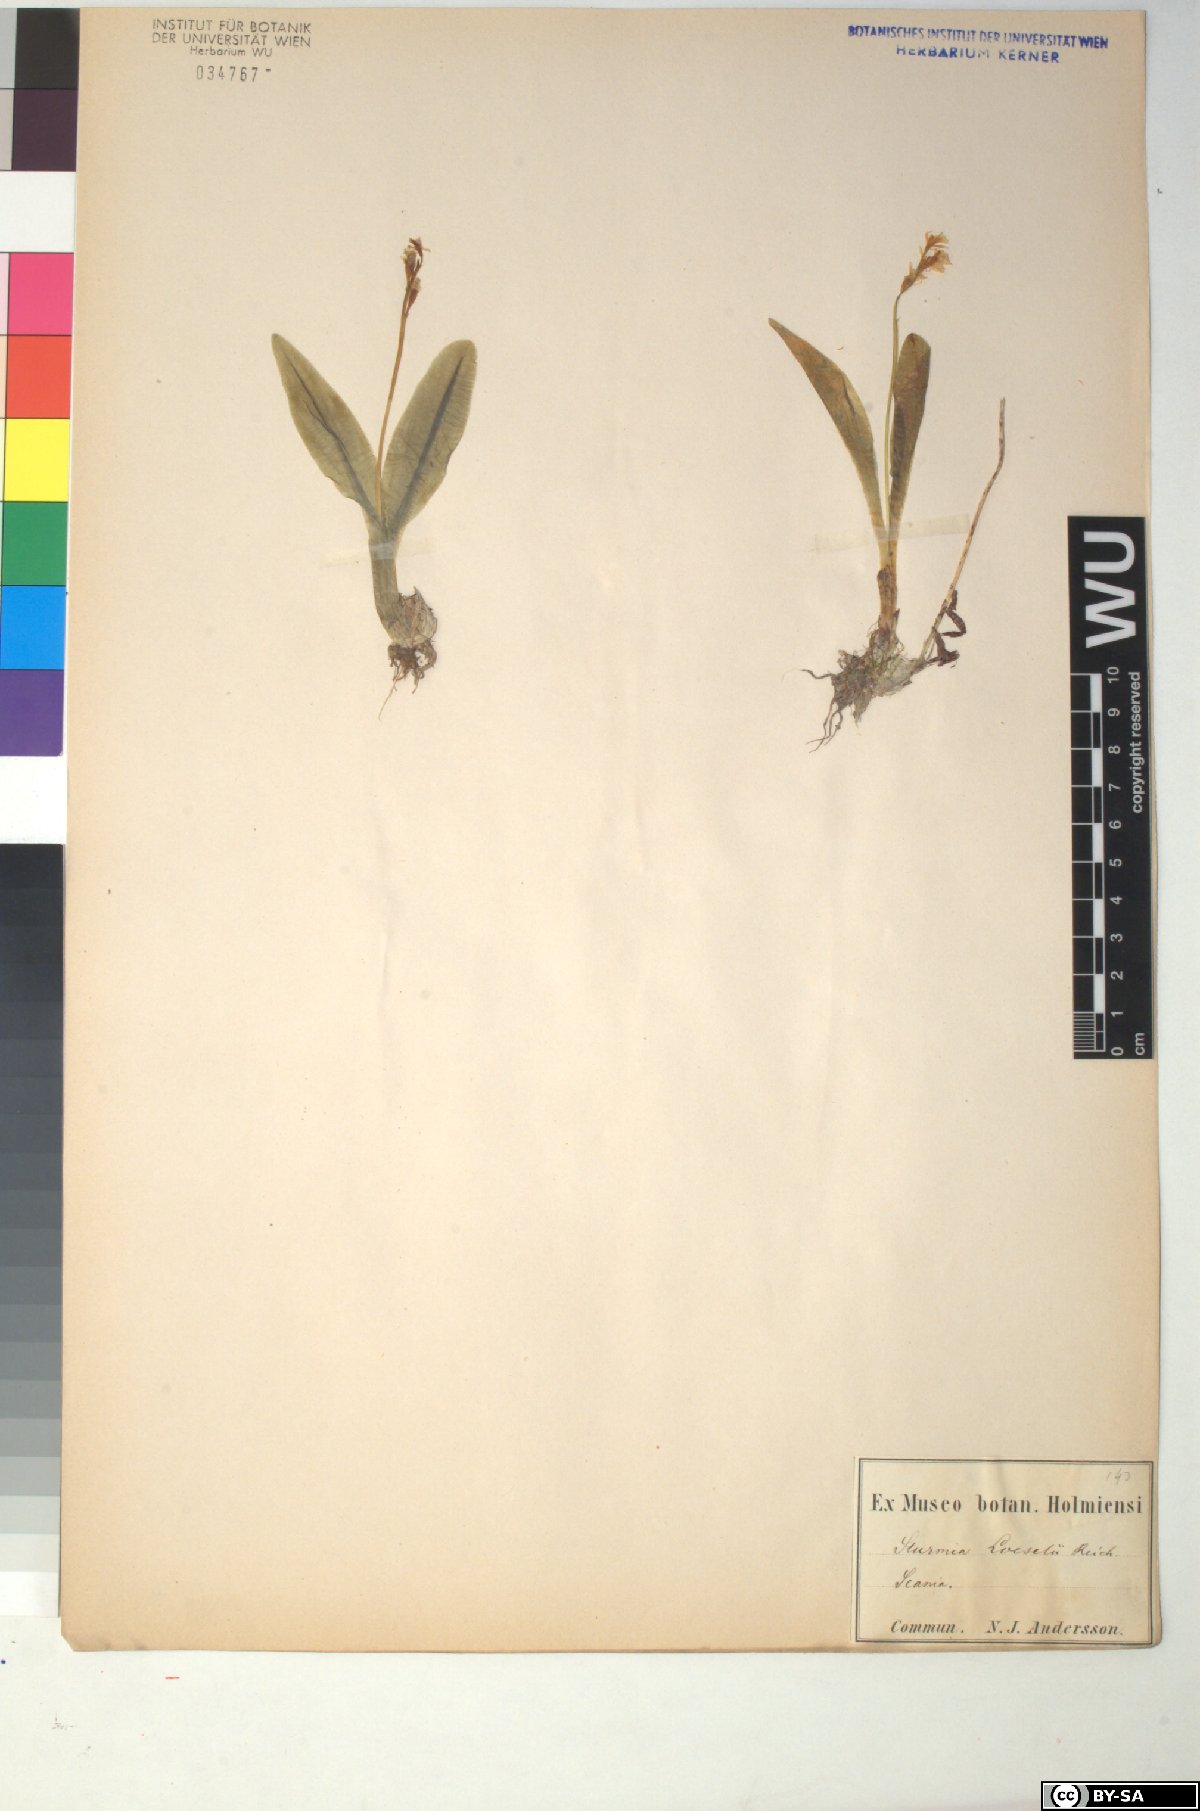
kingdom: Animalia
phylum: Arthropoda
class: Insecta
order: Coleoptera
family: Curculionidae
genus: Liparis
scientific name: Liparis loeselii
